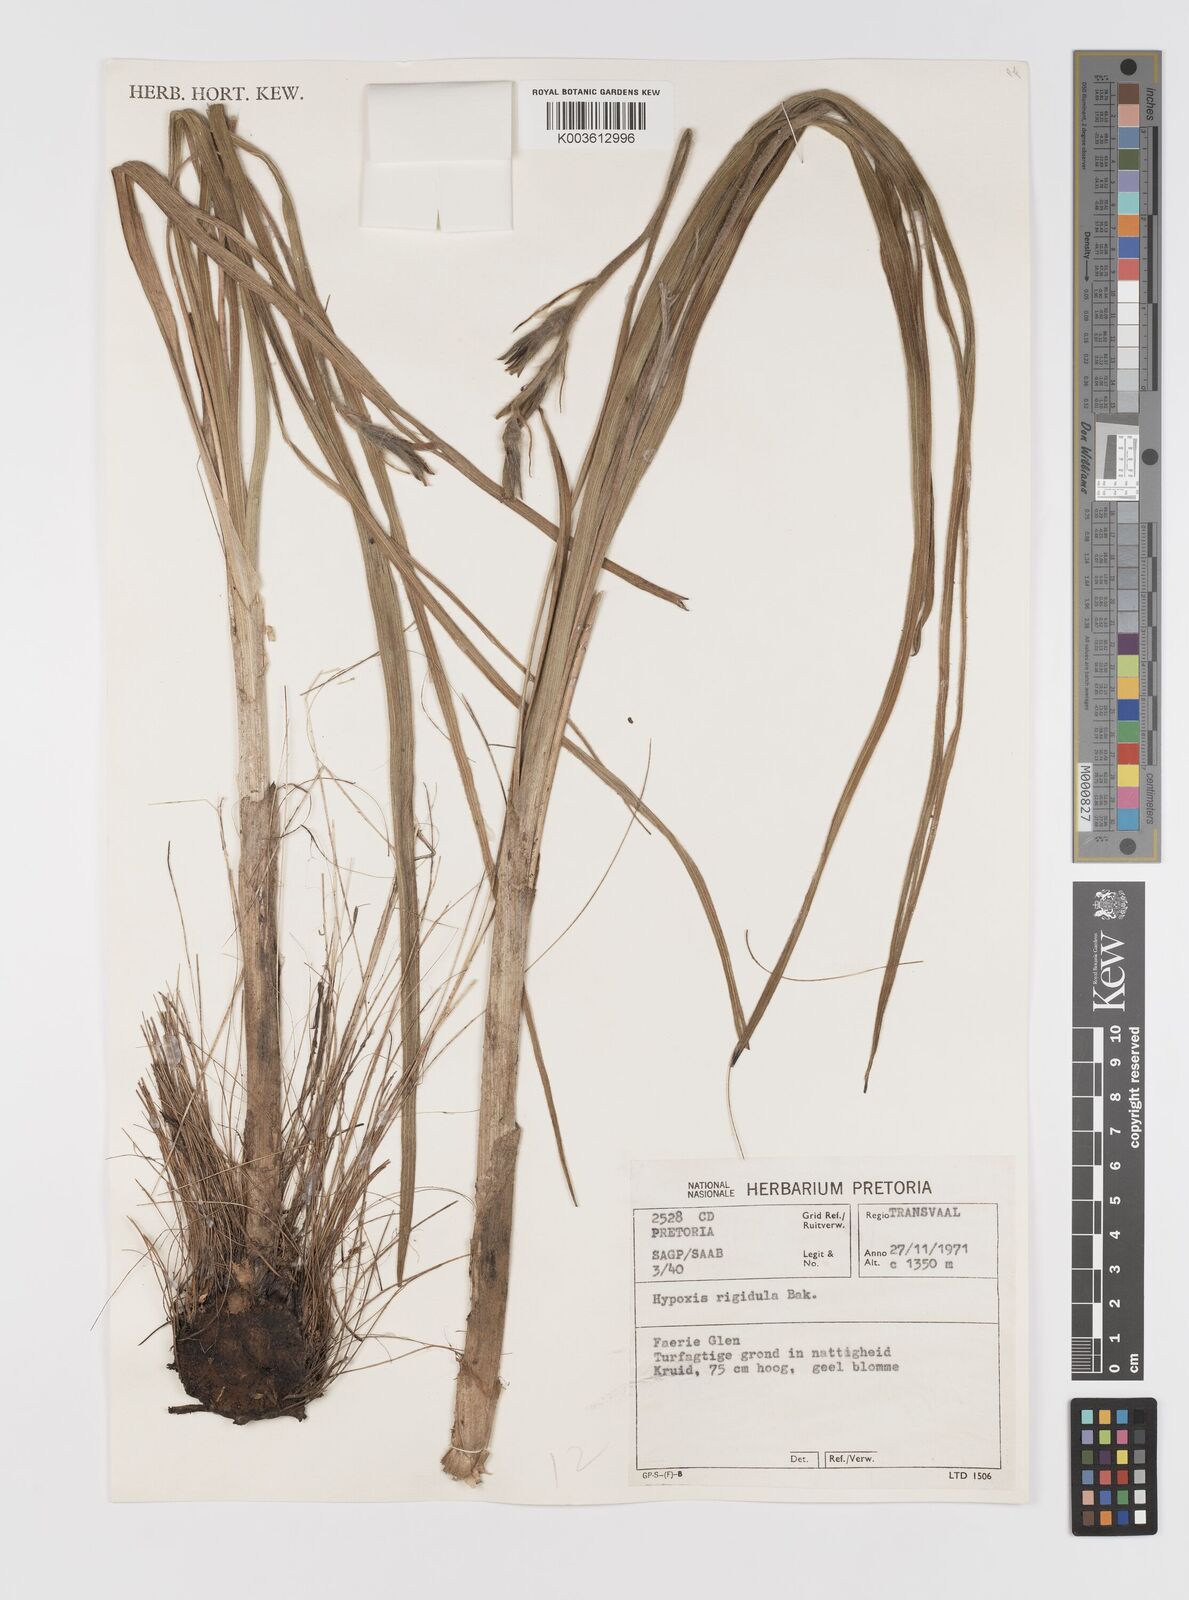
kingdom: Plantae
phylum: Tracheophyta
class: Liliopsida
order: Asparagales
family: Hypoxidaceae
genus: Hypoxis
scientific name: Hypoxis rigidula
